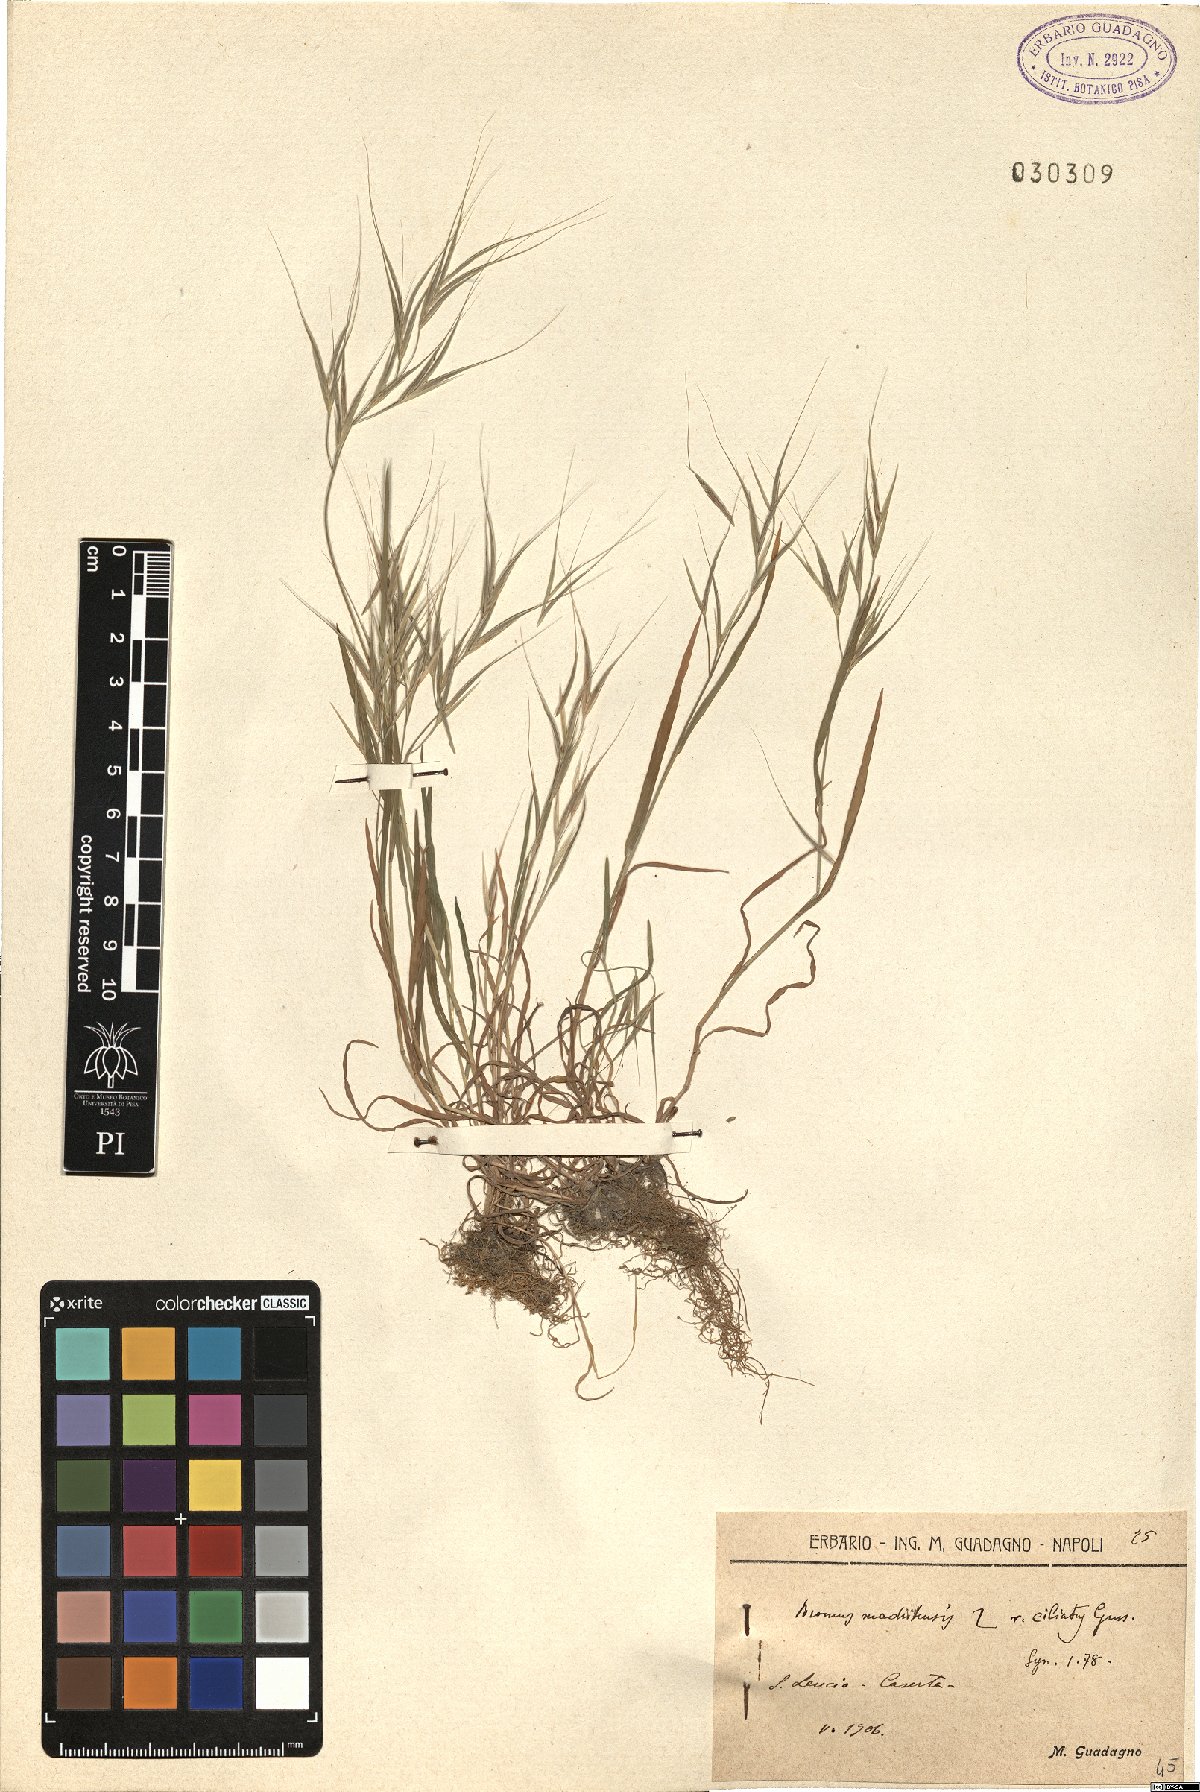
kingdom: Plantae
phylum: Tracheophyta
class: Liliopsida
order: Poales
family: Poaceae
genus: Bromus
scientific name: Bromus madritensis
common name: Compact brome
